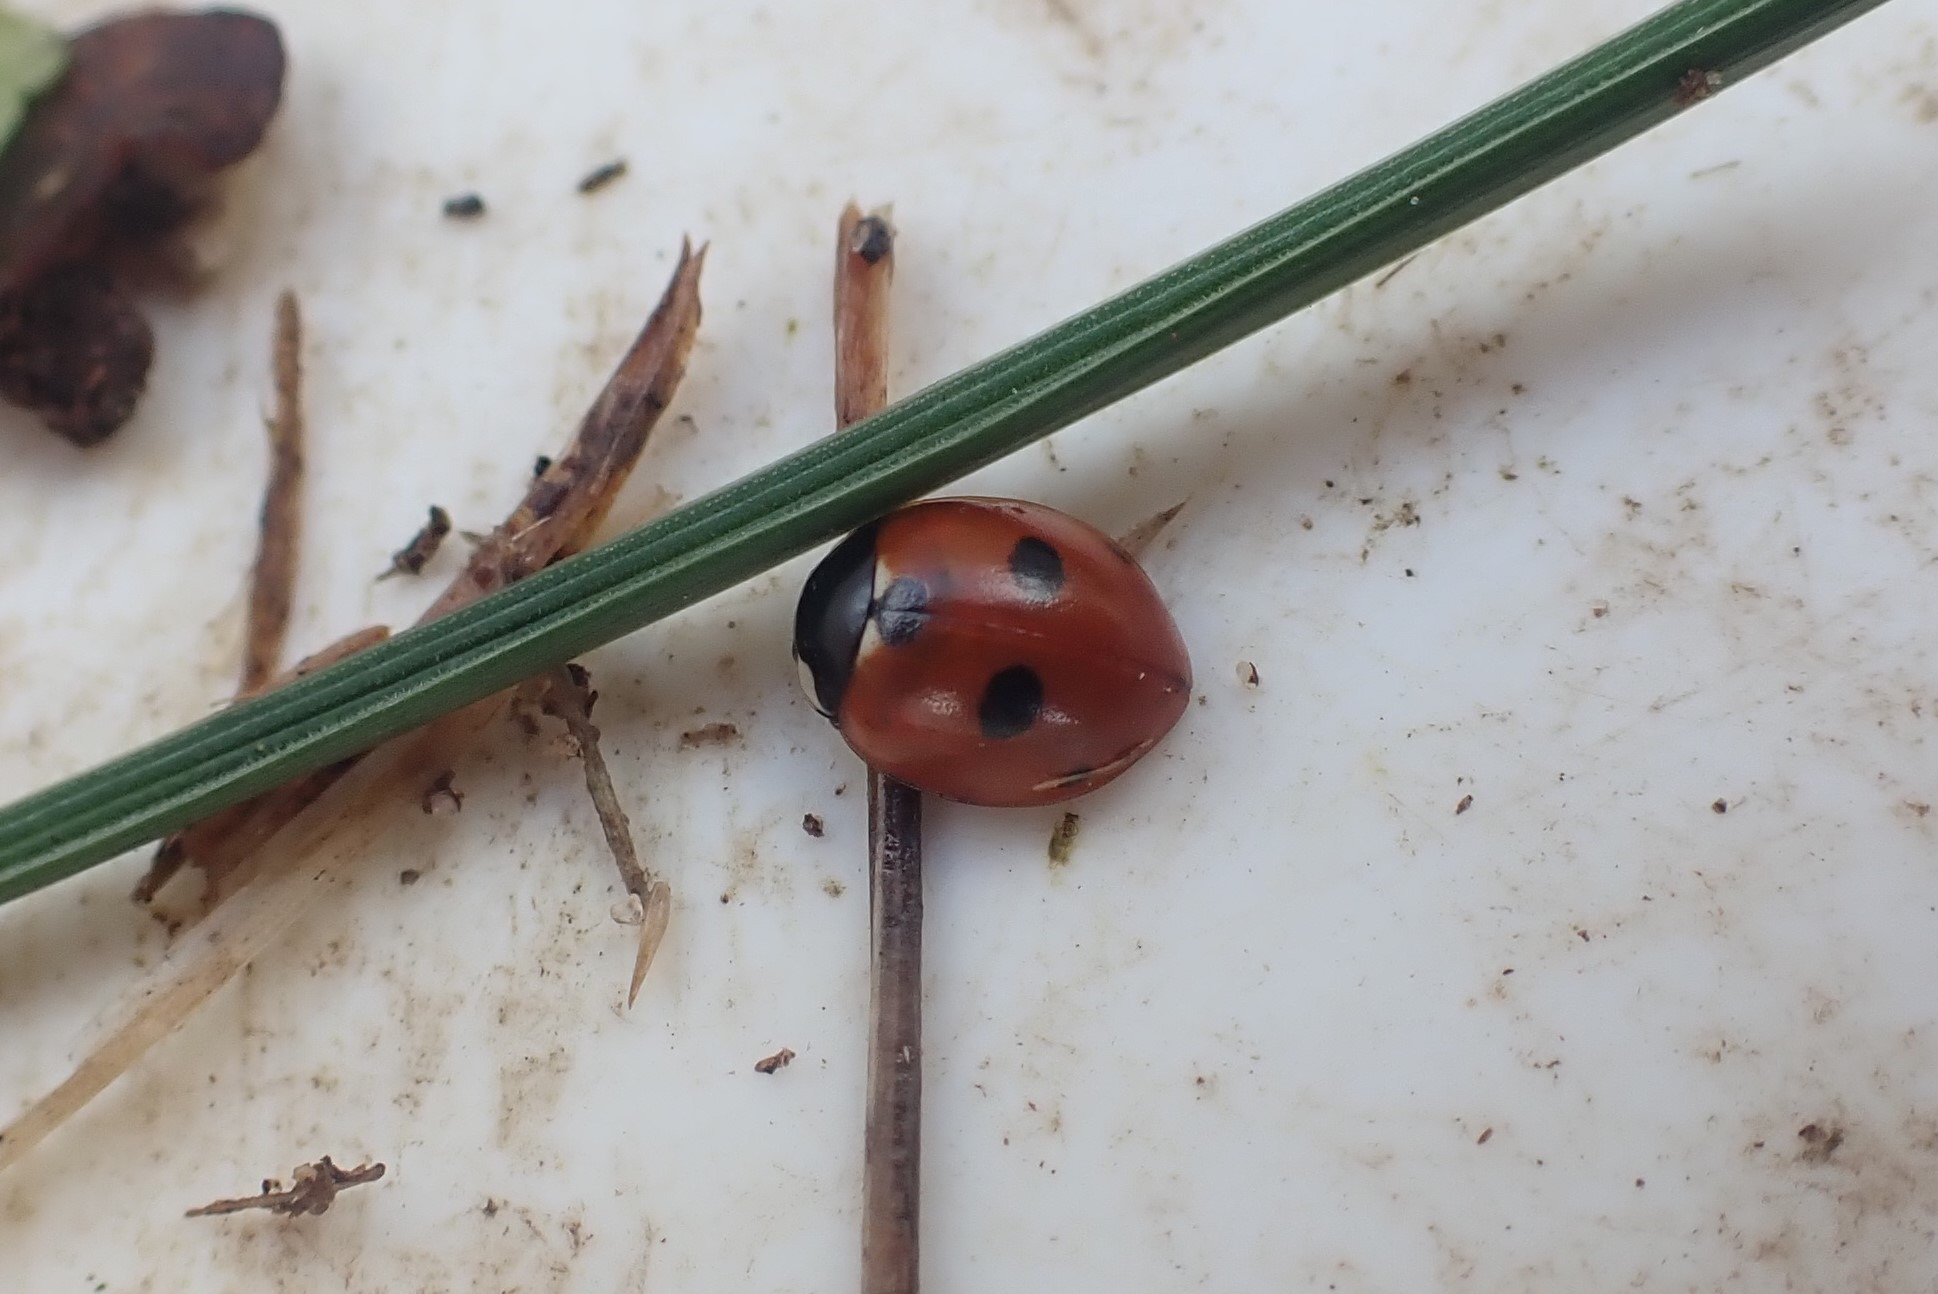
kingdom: Animalia
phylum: Arthropoda
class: Insecta
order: Coleoptera
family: Coccinellidae
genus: Coccinella
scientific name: Coccinella quinquepunctata
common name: Femplettet mariehøne
